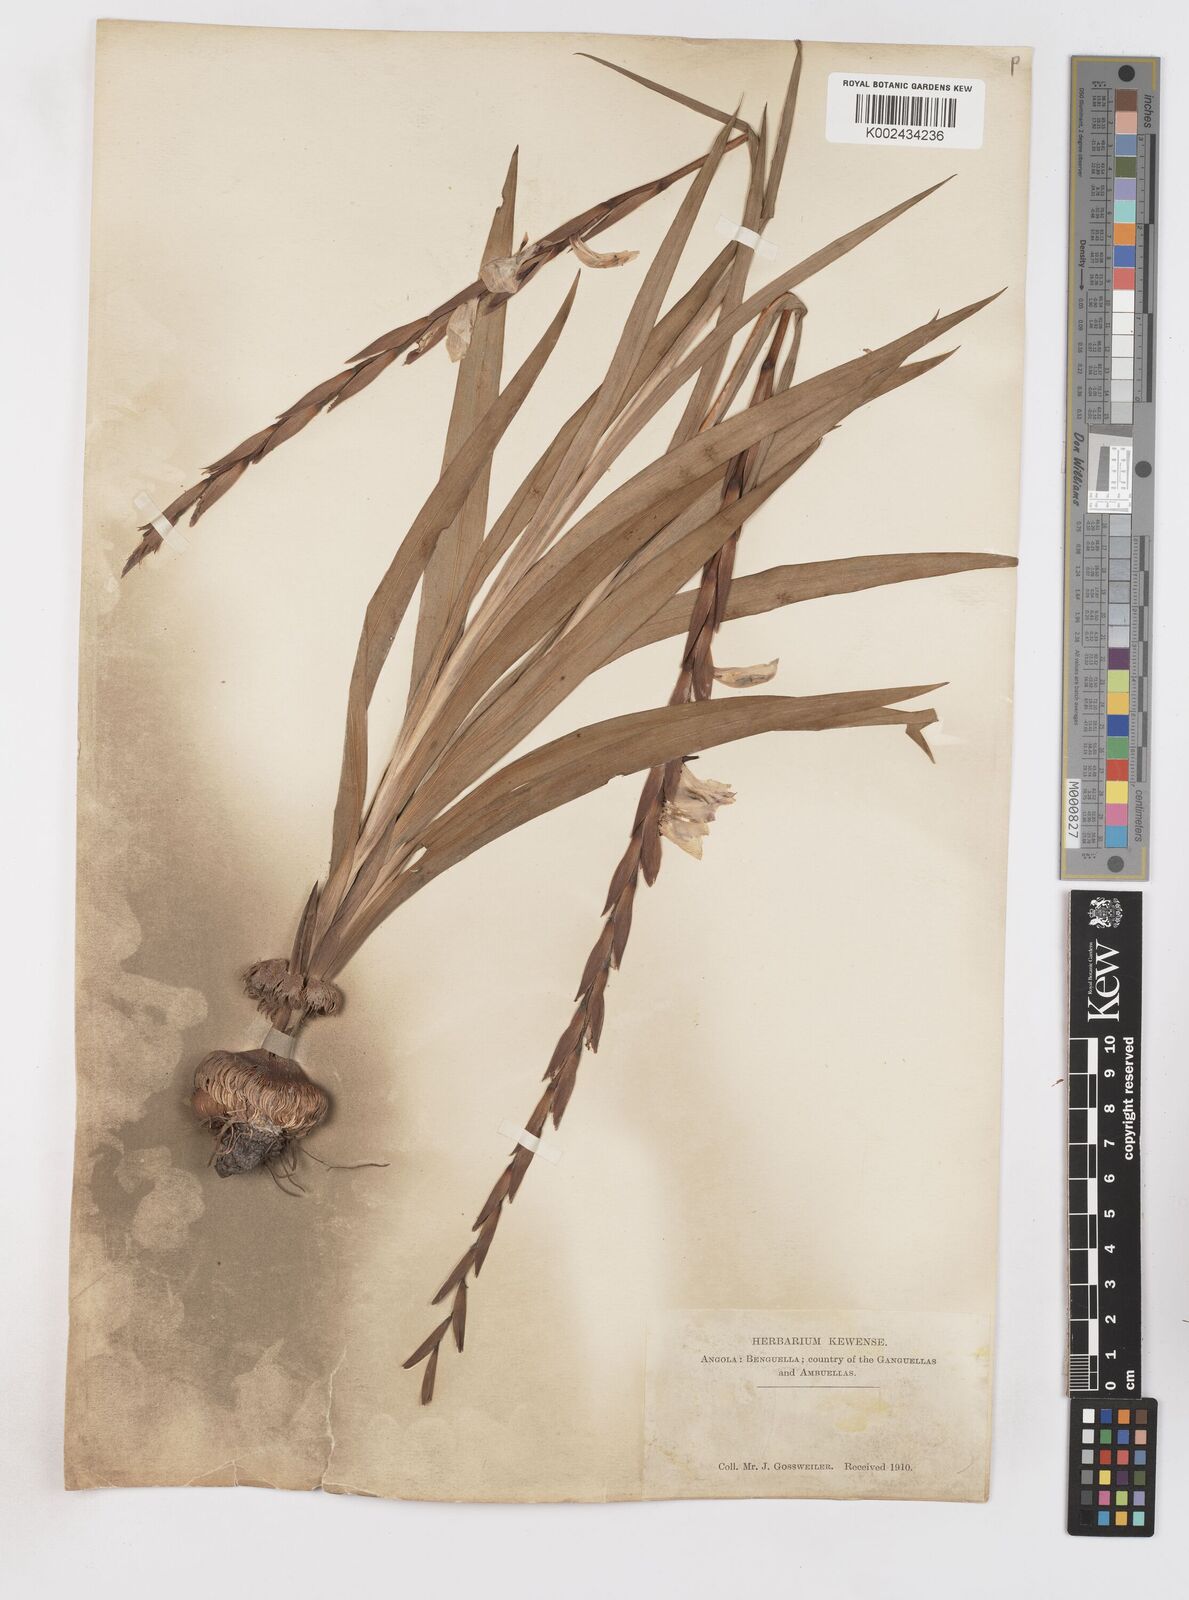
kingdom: Plantae
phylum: Tracheophyta
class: Liliopsida
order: Asparagales
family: Iridaceae
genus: Gladiolus
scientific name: Gladiolus gregarius
